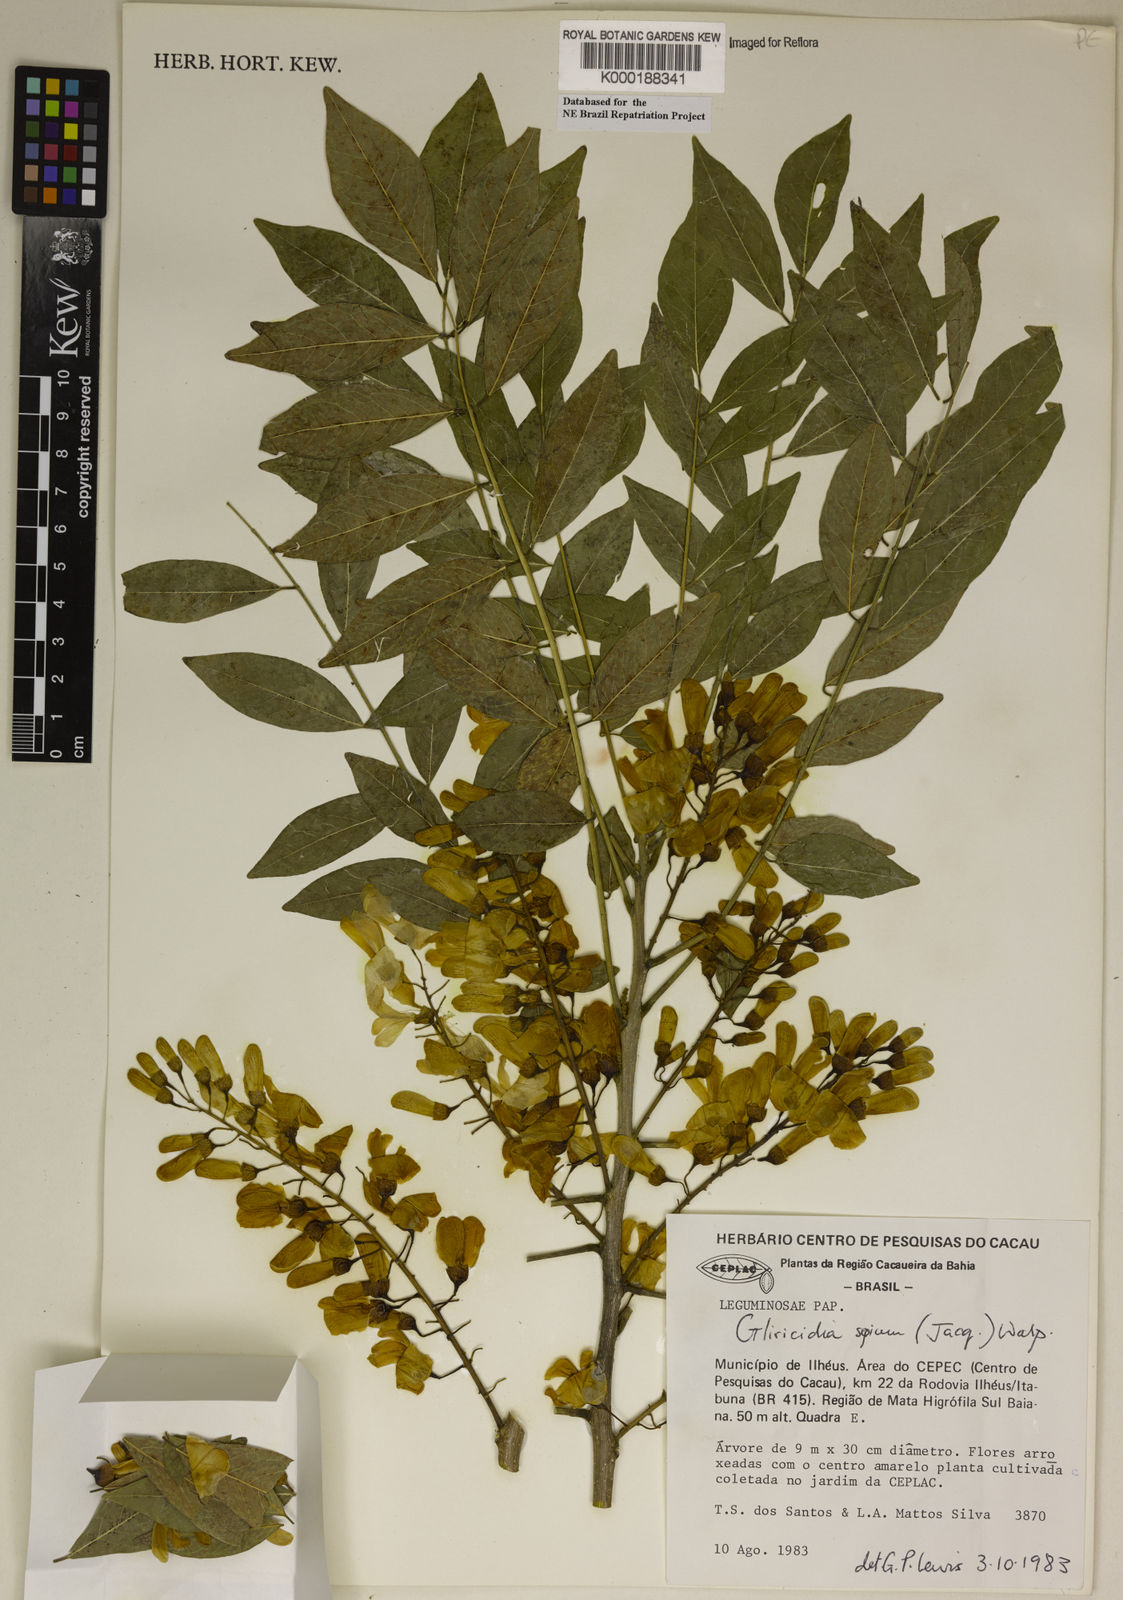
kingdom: Plantae
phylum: Tracheophyta
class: Magnoliopsida
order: Fabales
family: Fabaceae
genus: Gliricidia
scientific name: Gliricidia
